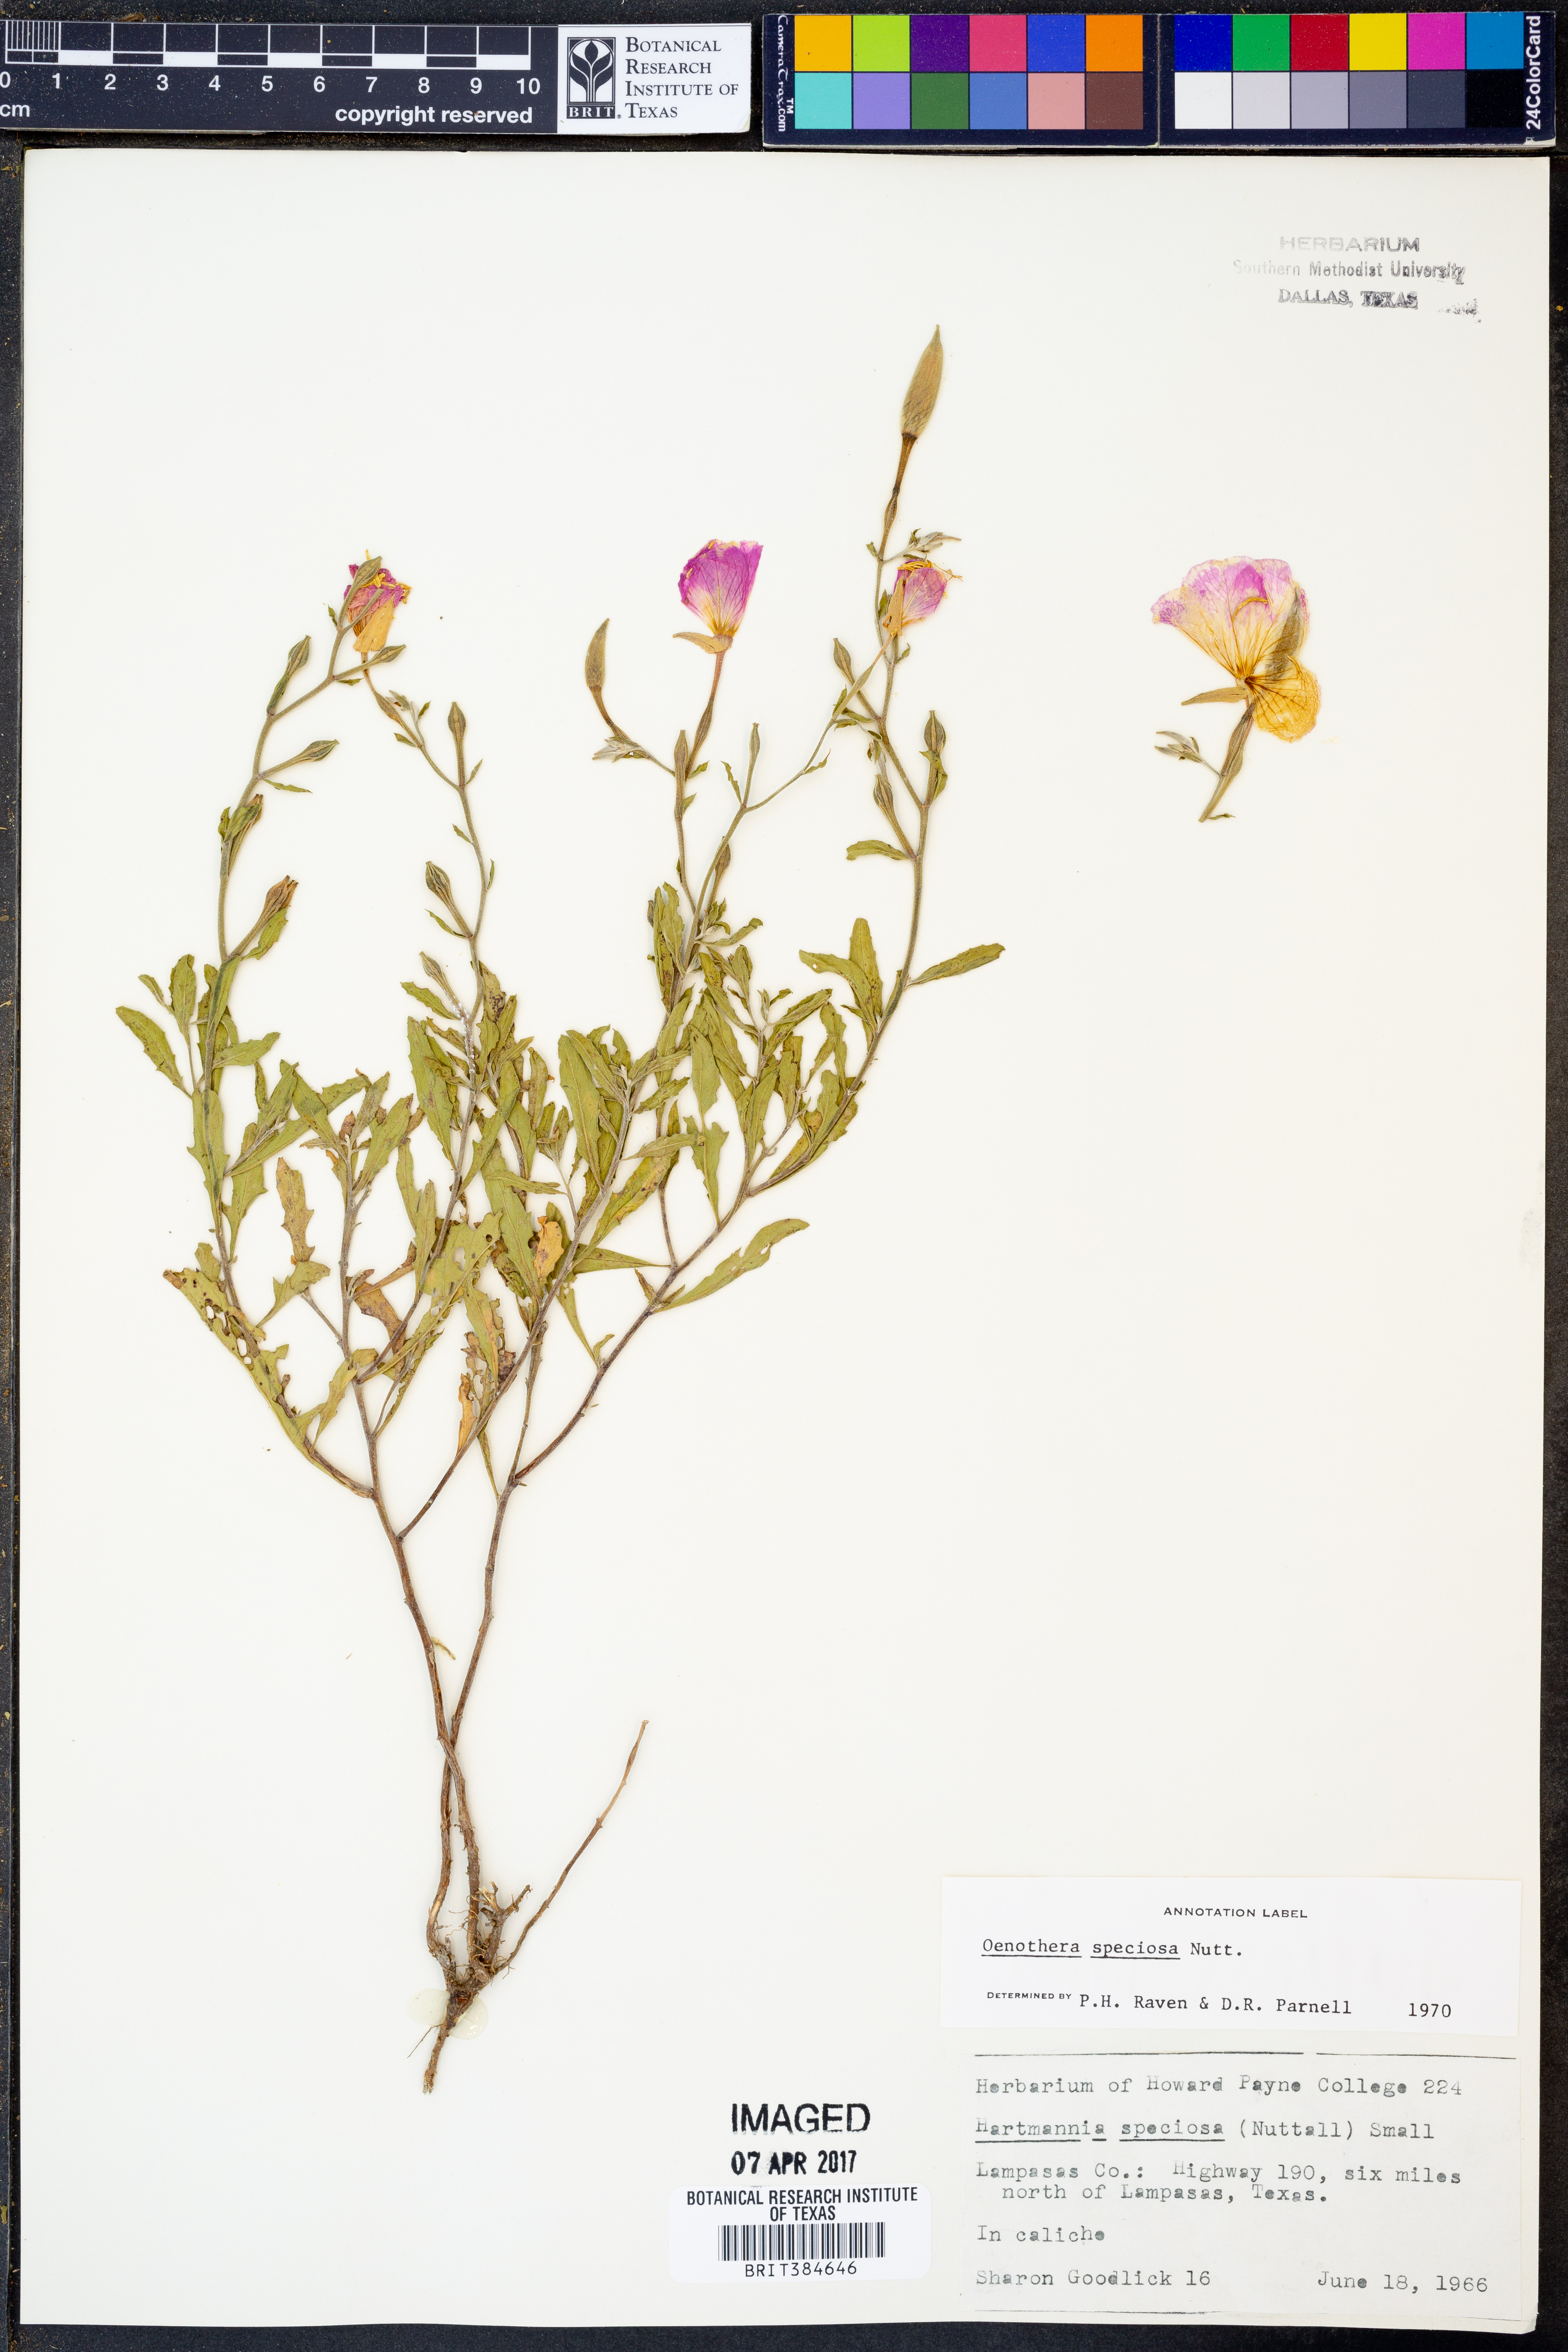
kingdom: Plantae
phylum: Tracheophyta
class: Magnoliopsida
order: Myrtales
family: Onagraceae
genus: Oenothera
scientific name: Oenothera speciosa
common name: White evening-primrose
